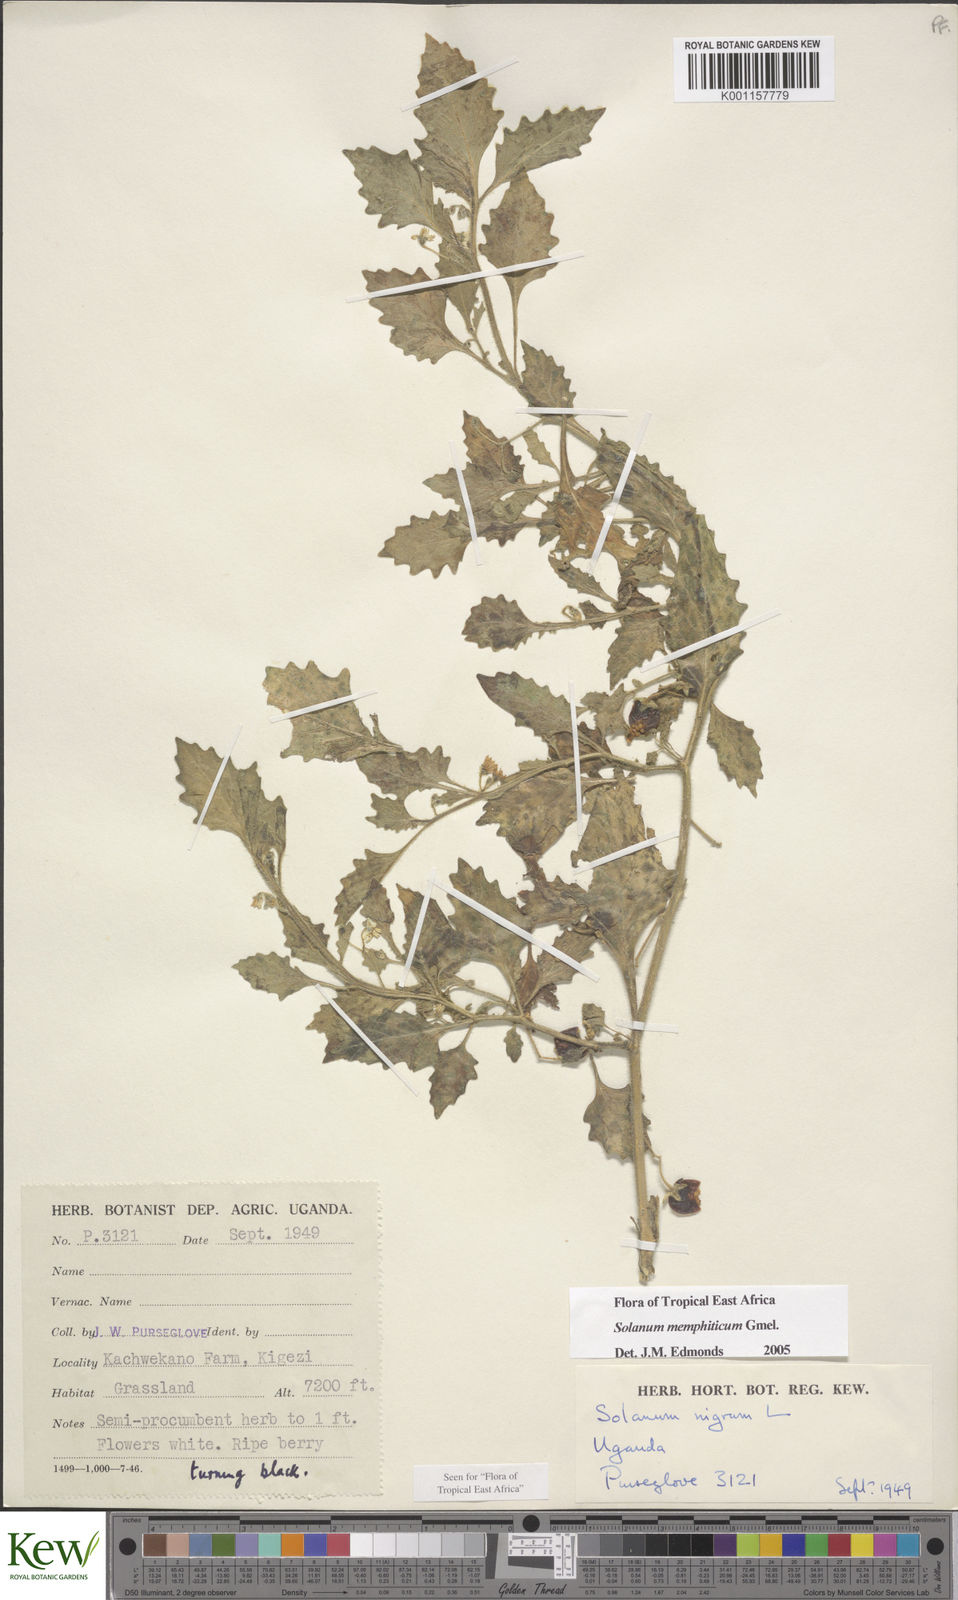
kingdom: Plantae
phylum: Tracheophyta
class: Magnoliopsida
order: Solanales
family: Solanaceae
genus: Solanum
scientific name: Solanum memphiticum
